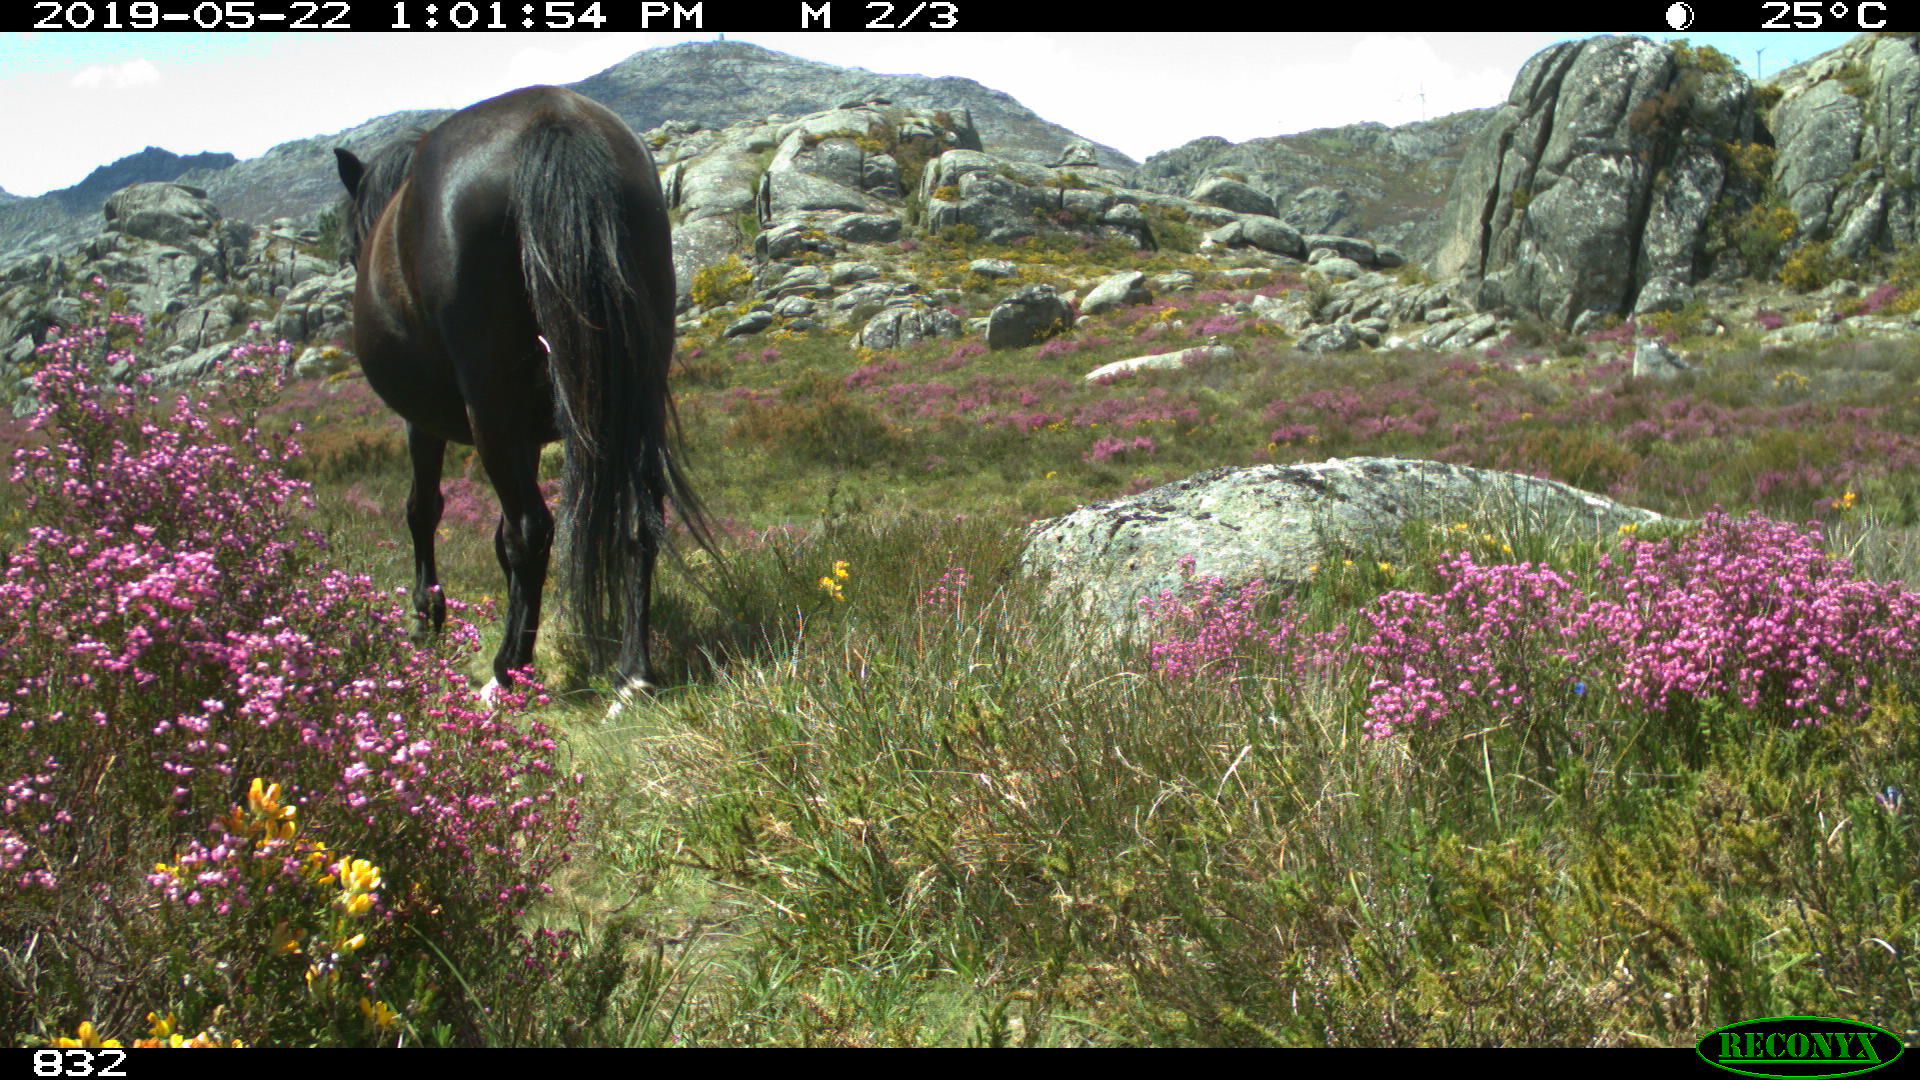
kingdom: Animalia
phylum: Chordata
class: Mammalia
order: Perissodactyla
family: Equidae
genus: Equus
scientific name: Equus caballus
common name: Horse
